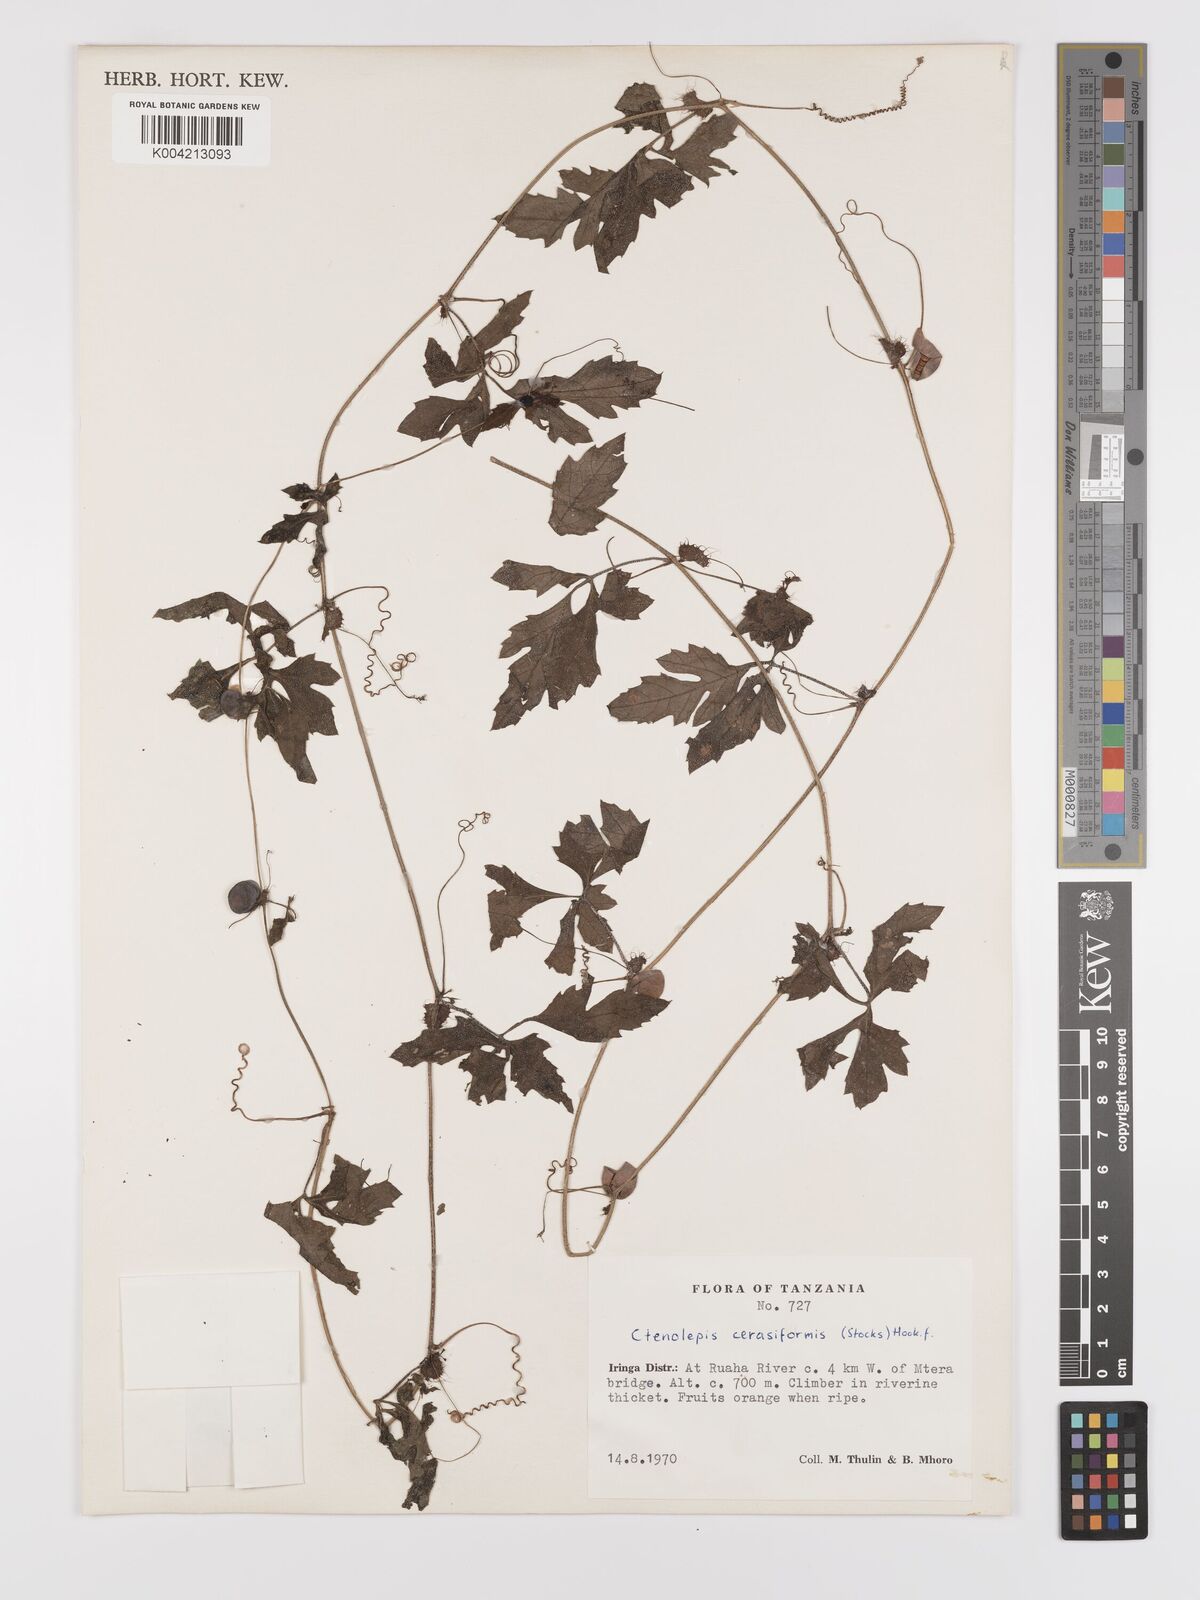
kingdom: Plantae
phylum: Tracheophyta
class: Magnoliopsida
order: Cucurbitales
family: Cucurbitaceae
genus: Blastania
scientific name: Blastania cerasiformis
